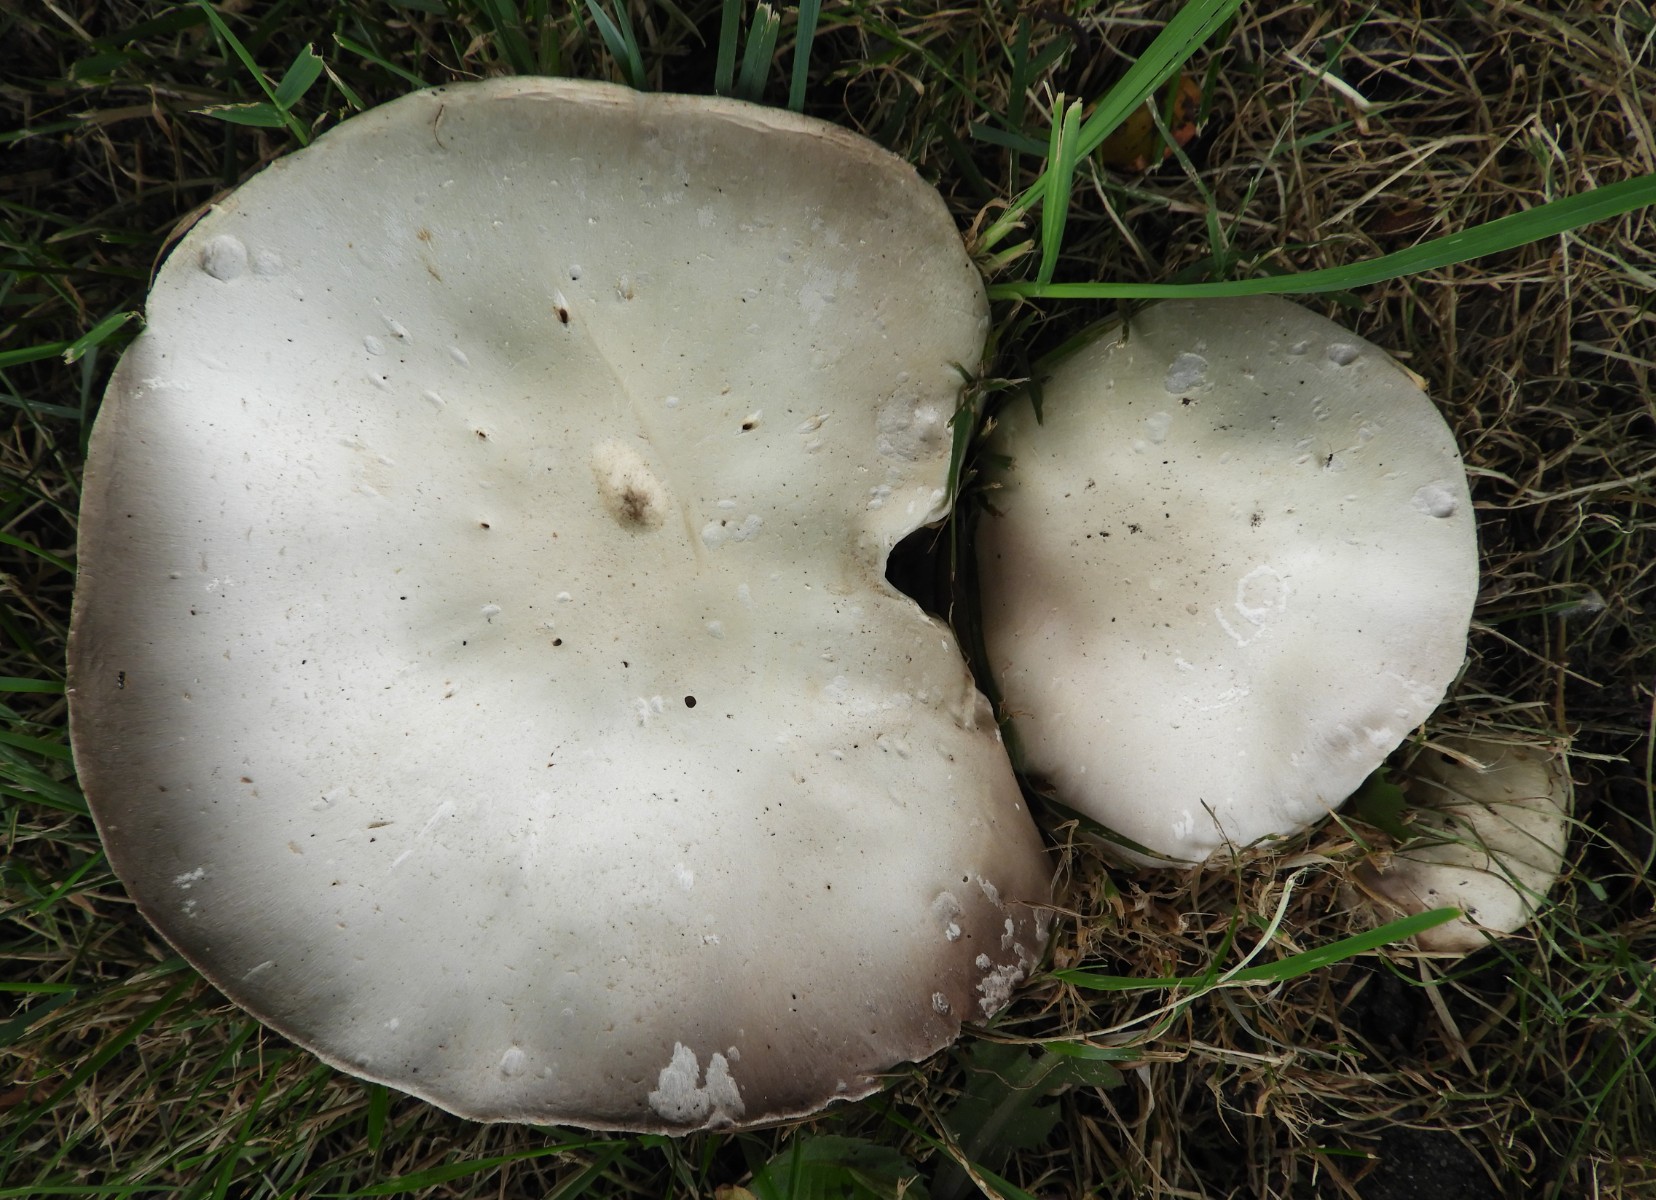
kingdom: Fungi
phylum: Basidiomycota
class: Agaricomycetes
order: Agaricales
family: Agaricaceae
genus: Agaricus
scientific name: Agaricus campestris
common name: mark-champignon
